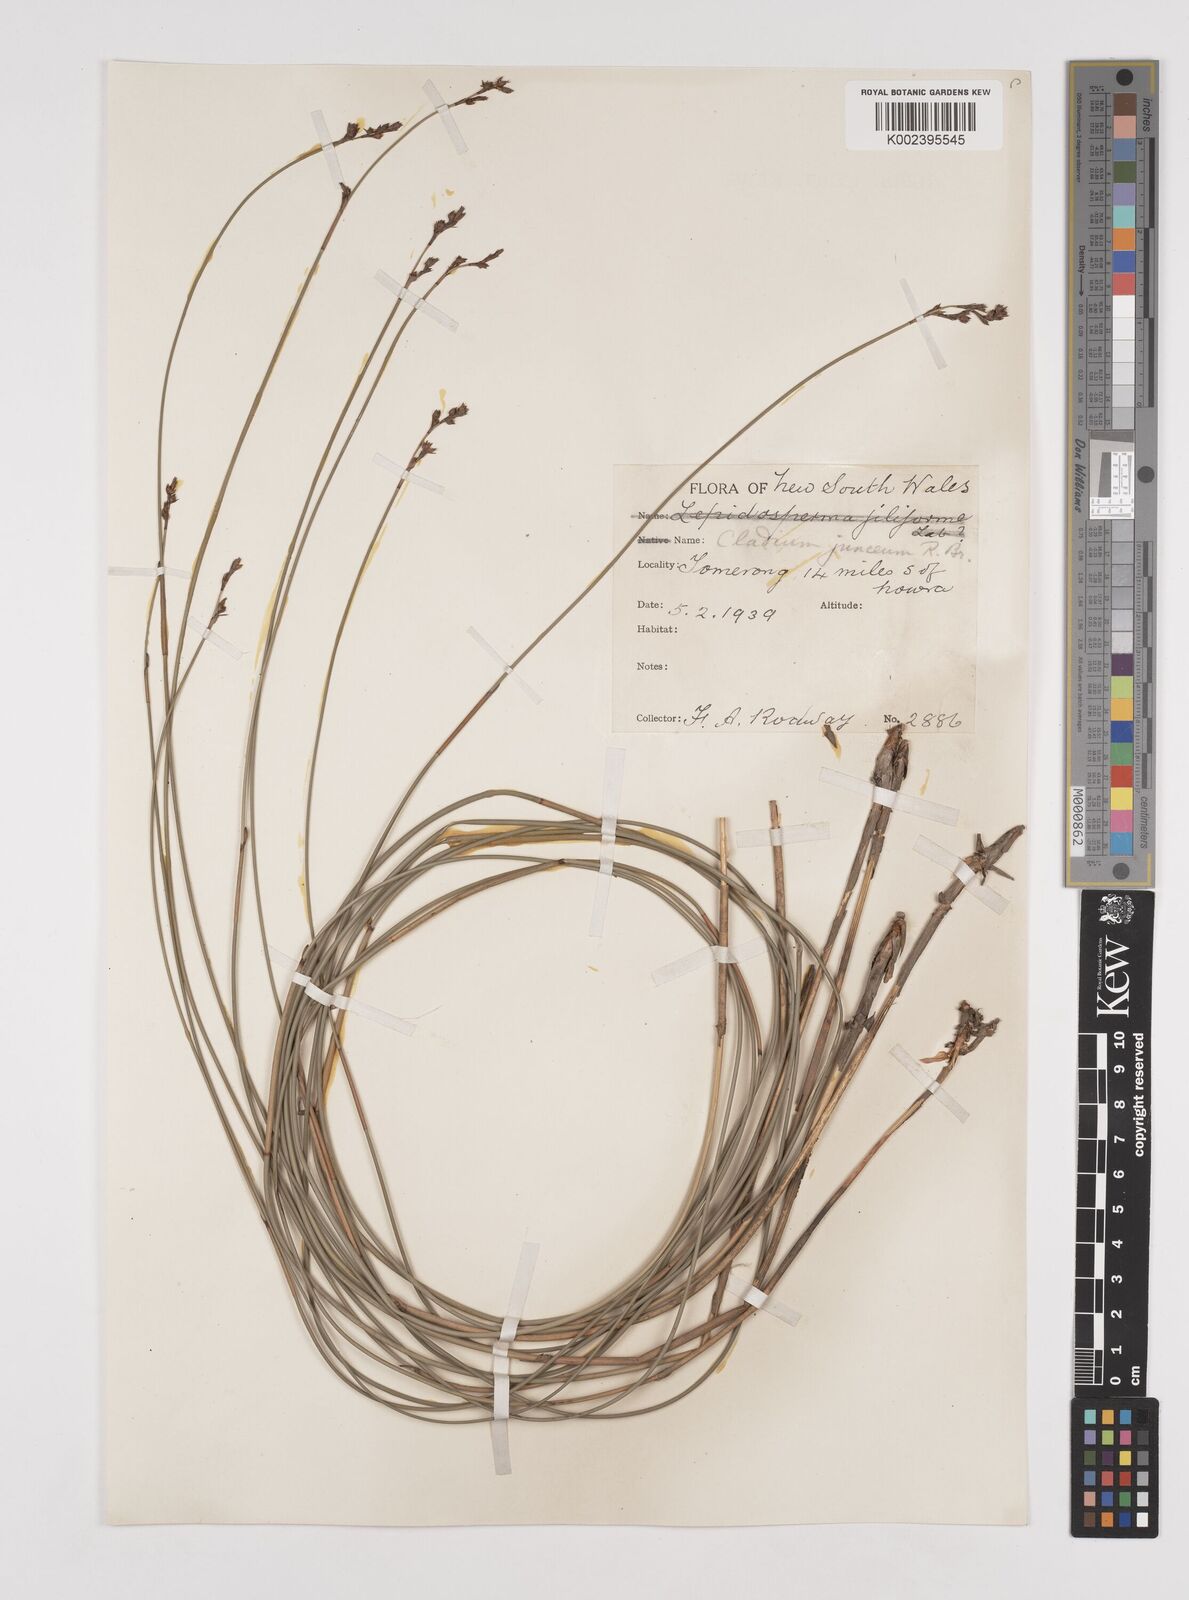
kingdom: Plantae
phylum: Tracheophyta
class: Liliopsida
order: Poales
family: Cyperaceae
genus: Machaerina
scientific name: Machaerina juncea
